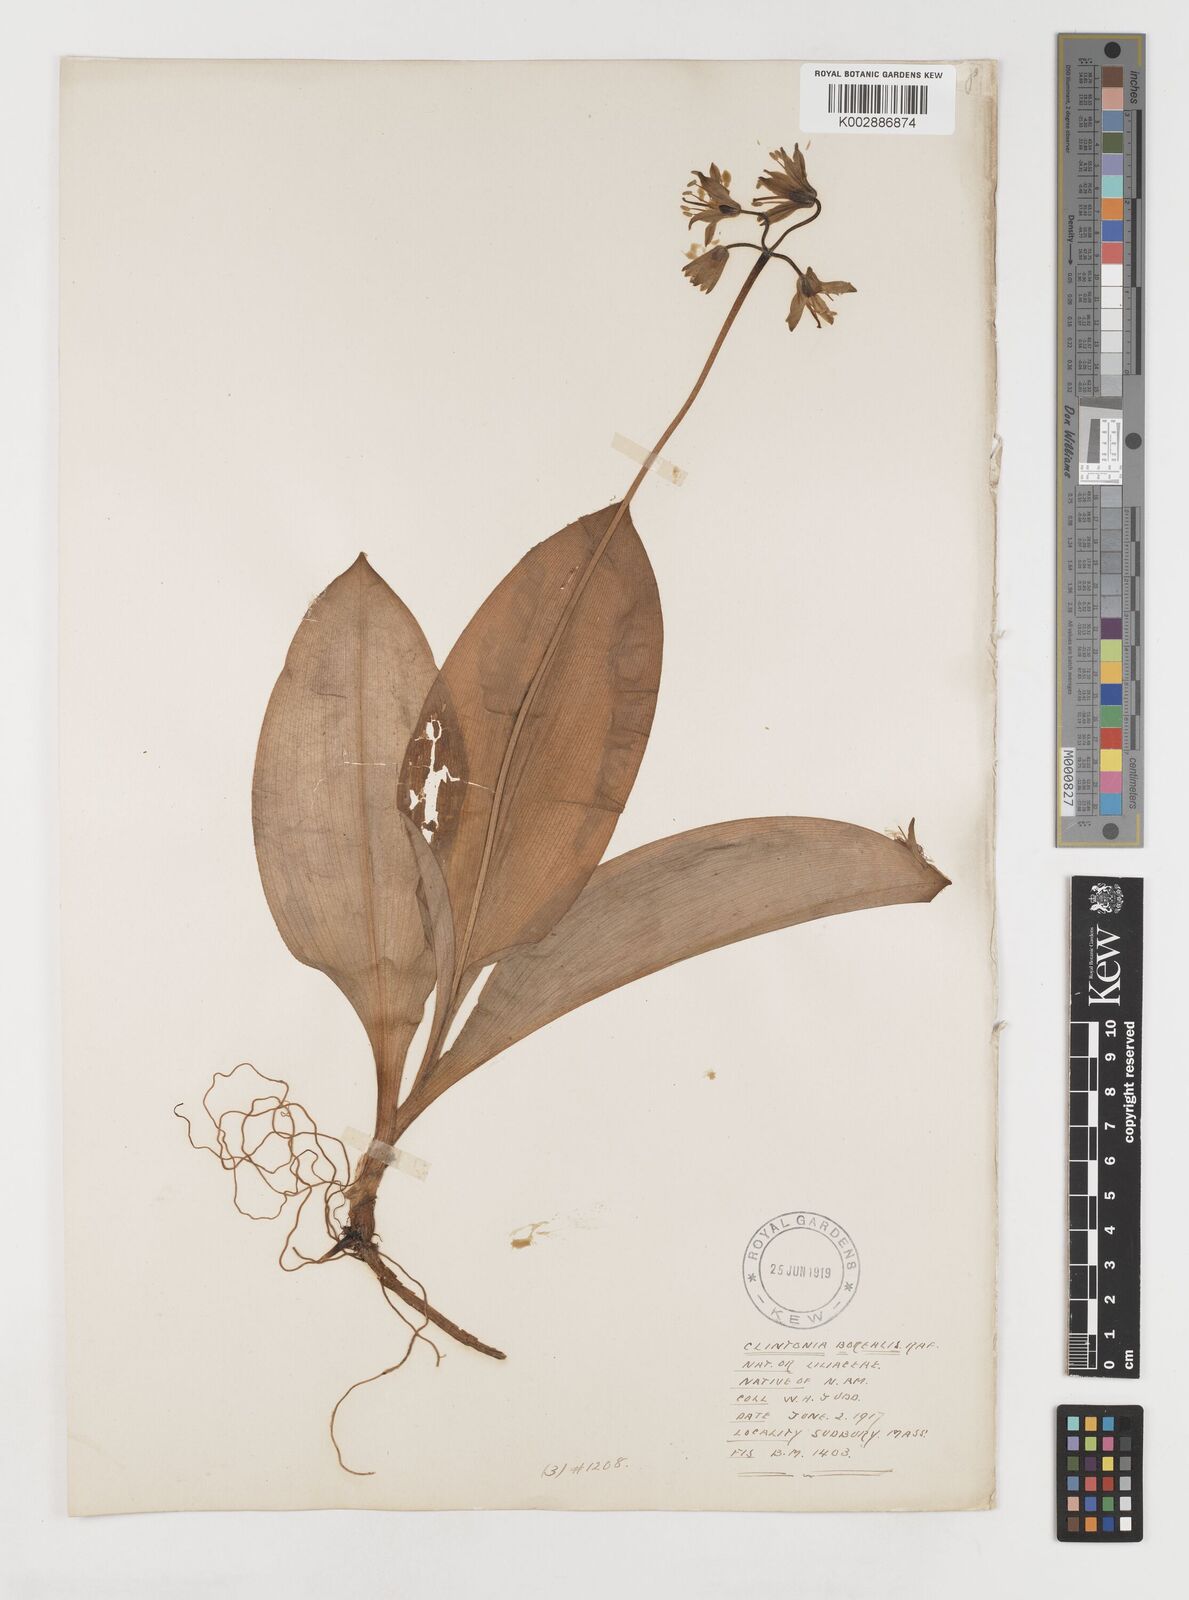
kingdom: Plantae
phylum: Tracheophyta
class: Liliopsida
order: Liliales
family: Liliaceae
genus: Clintonia
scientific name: Clintonia borealis
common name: Yellow clintonia
